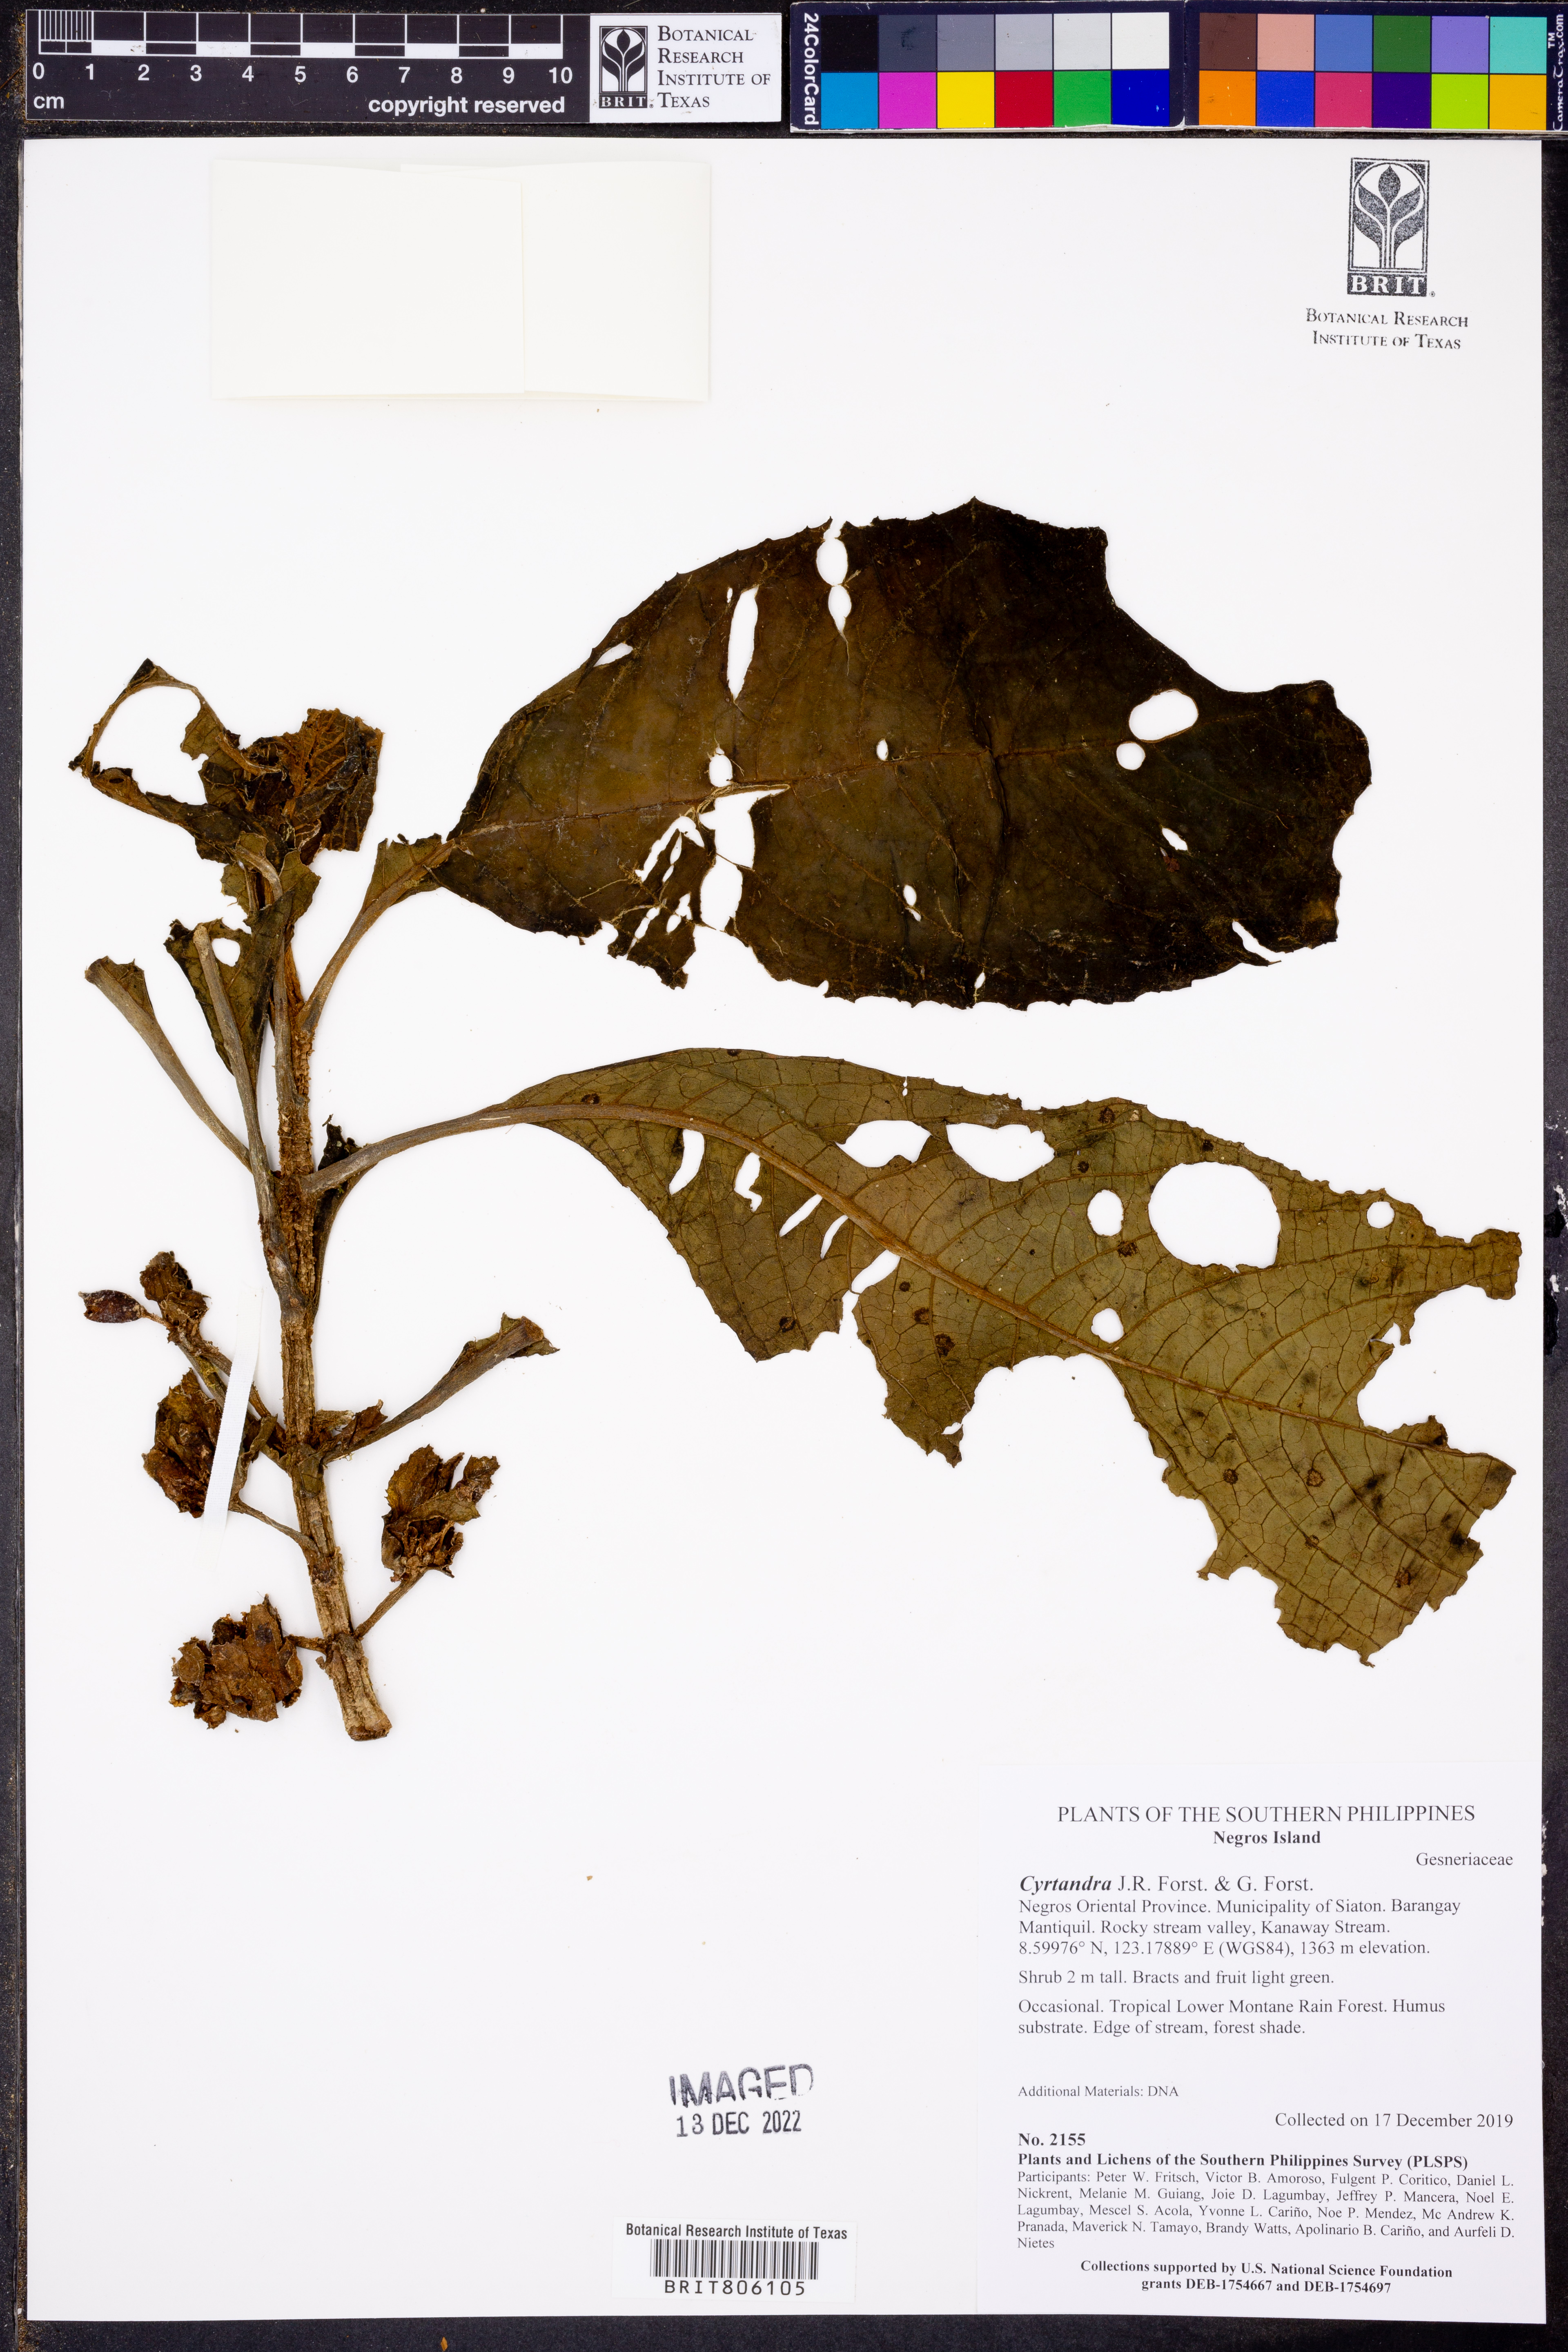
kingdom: Plantae
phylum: Tracheophyta
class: Magnoliopsida
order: Lamiales
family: Gesneriaceae
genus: Cyrtandra
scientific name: Cyrtandra
